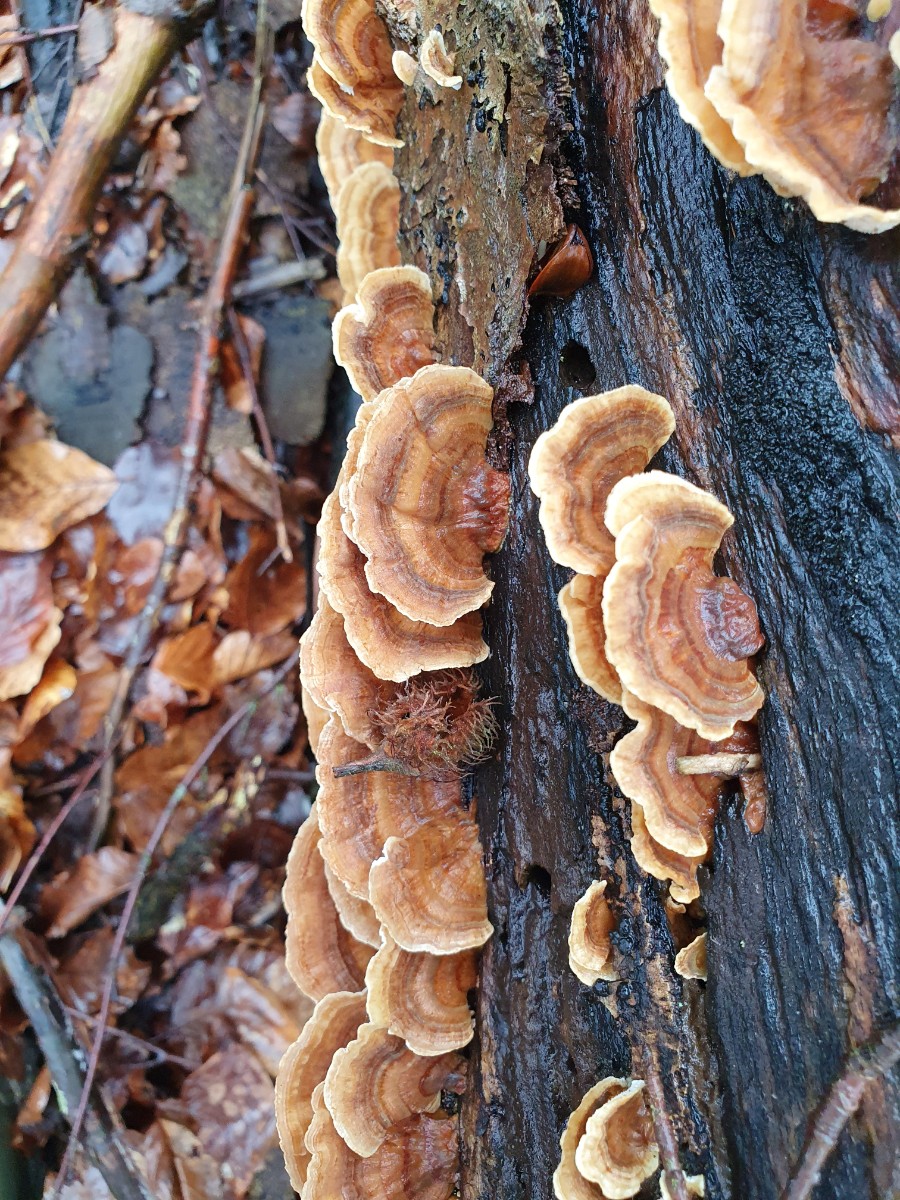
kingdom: Fungi
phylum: Basidiomycota
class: Agaricomycetes
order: Polyporales
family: Polyporaceae
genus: Trametes
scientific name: Trametes ochracea
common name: bæltet læderporesvamp
